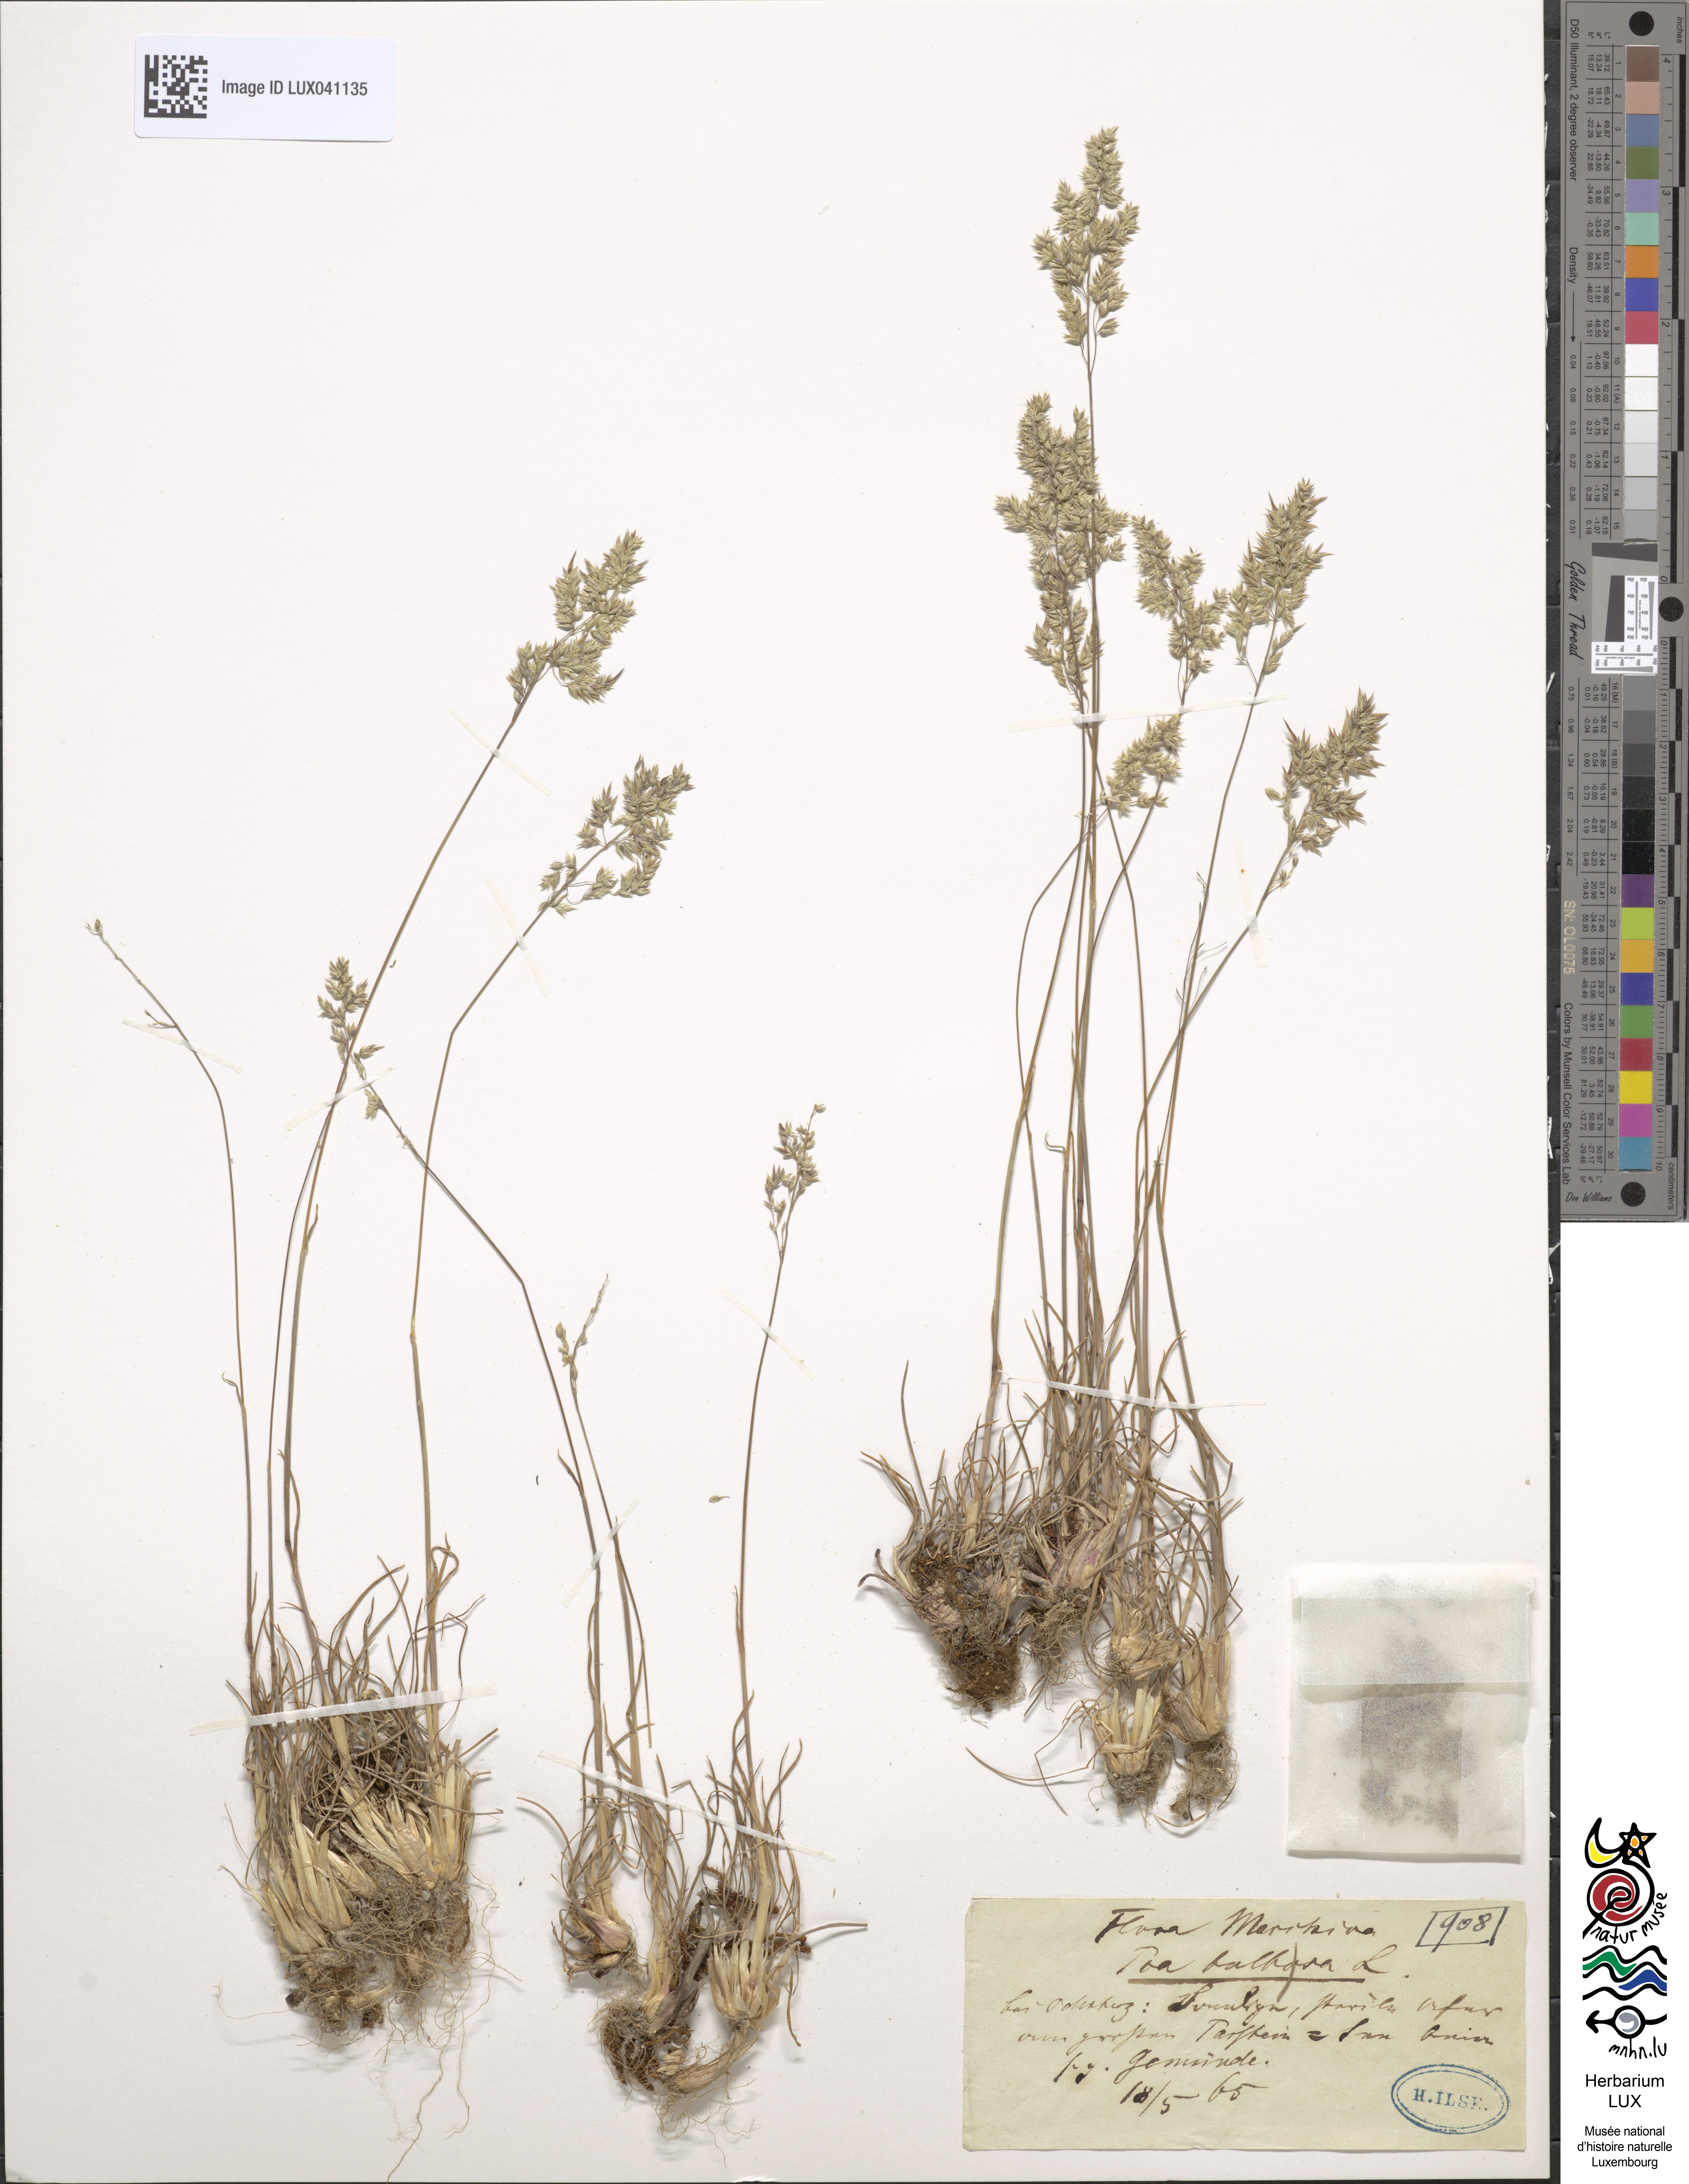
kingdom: Plantae
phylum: Tracheophyta
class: Liliopsida
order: Poales
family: Poaceae
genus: Poa
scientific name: Poa bulbosa
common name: Bulbous bluegrass
